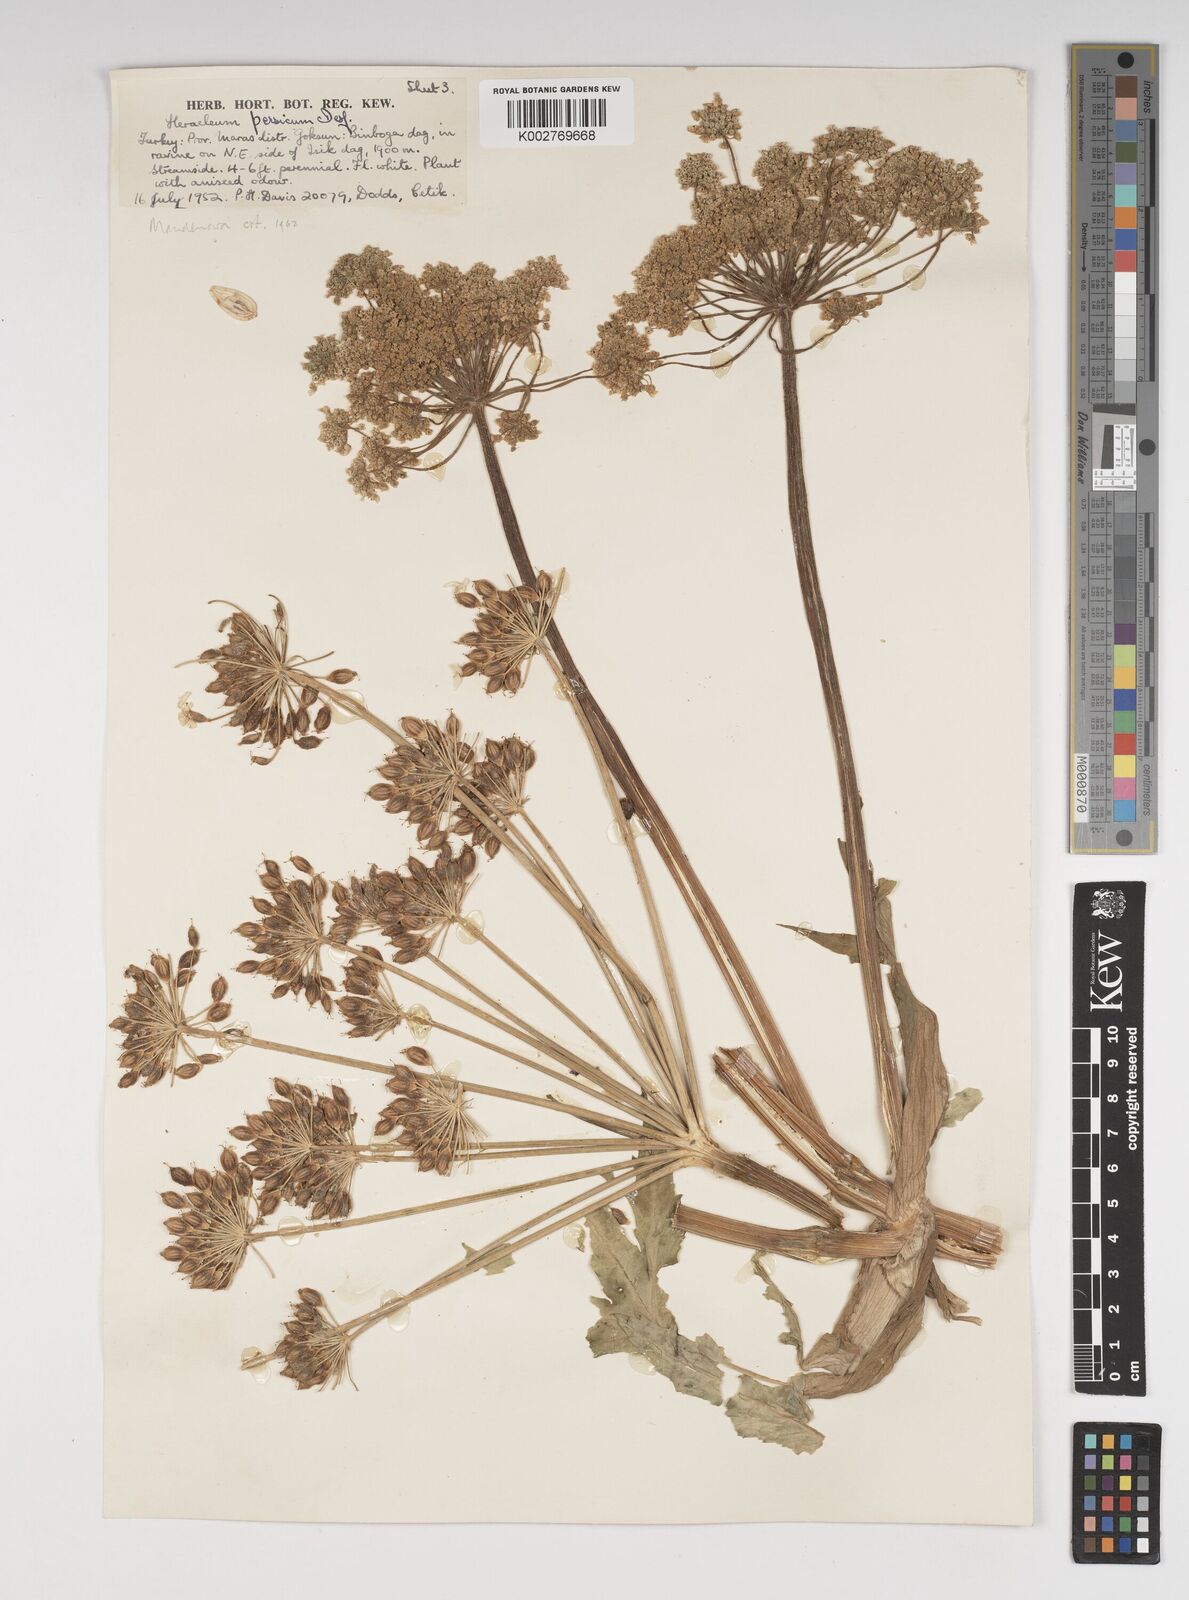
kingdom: Plantae
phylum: Tracheophyta
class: Magnoliopsida
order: Apiales
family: Apiaceae
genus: Heracleum
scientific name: Heracleum persicum
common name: Persian hogweed
